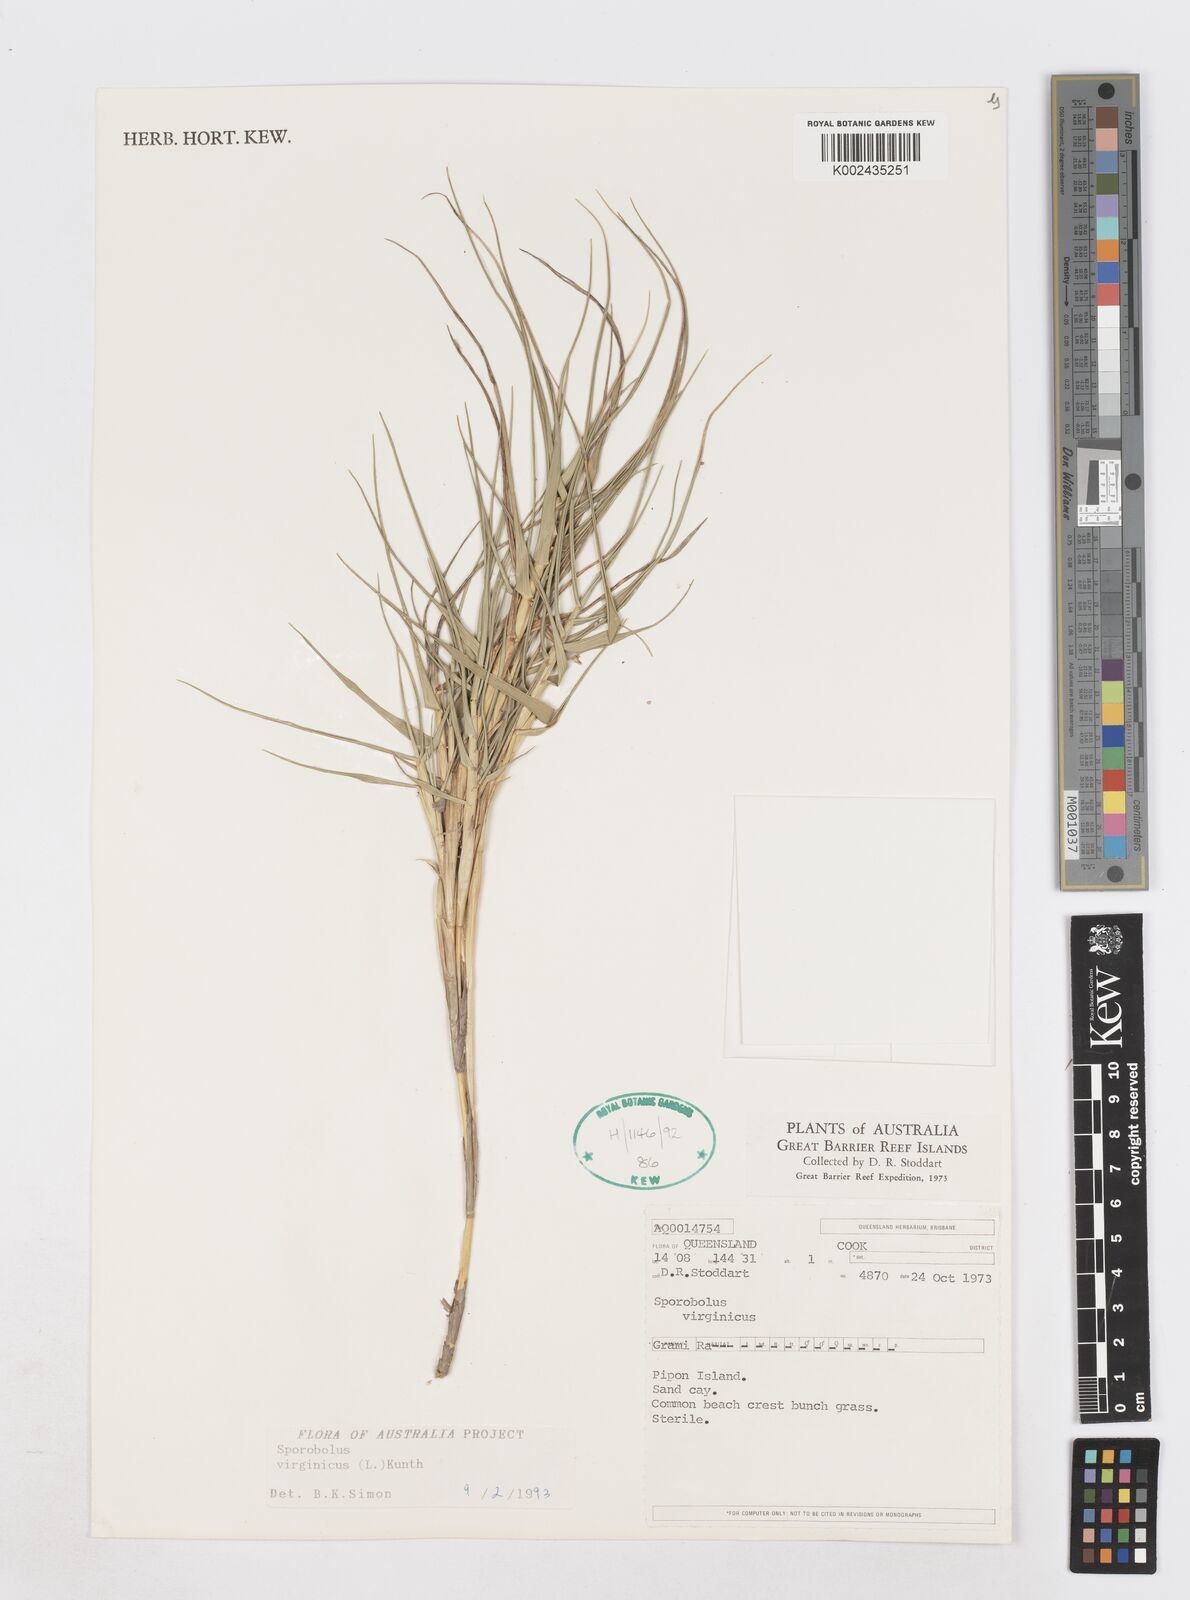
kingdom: Plantae
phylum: Tracheophyta
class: Liliopsida
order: Poales
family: Poaceae
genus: Sporobolus
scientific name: Sporobolus virginicus
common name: Beach dropseed
